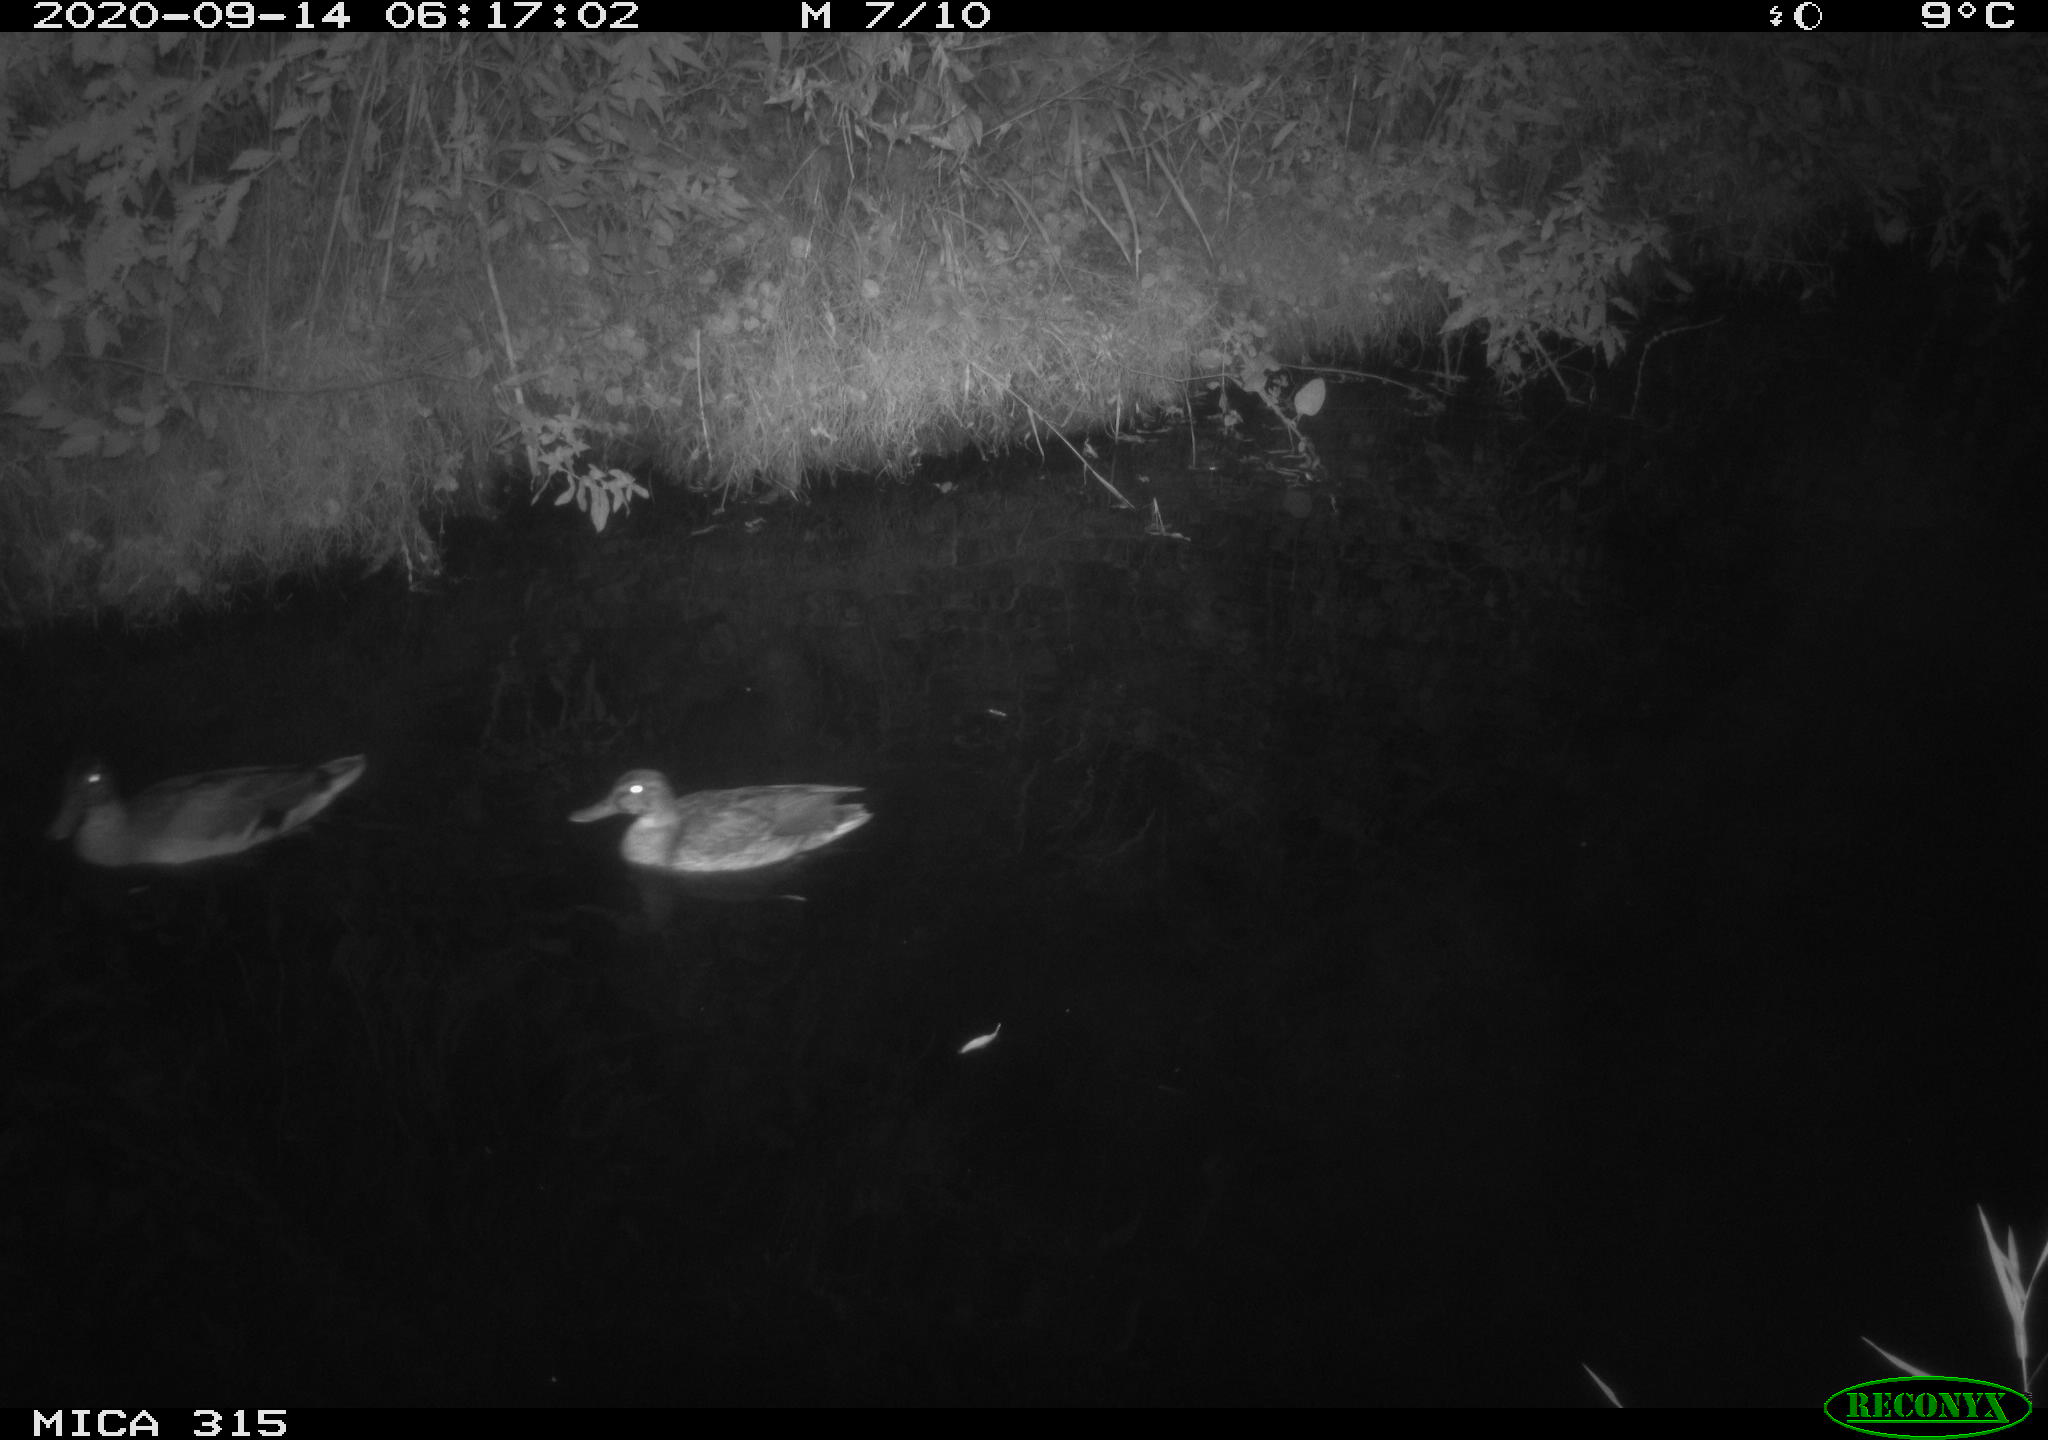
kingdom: Animalia
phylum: Chordata
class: Aves
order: Anseriformes
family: Anatidae
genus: Anas
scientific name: Anas platyrhynchos
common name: Mallard
